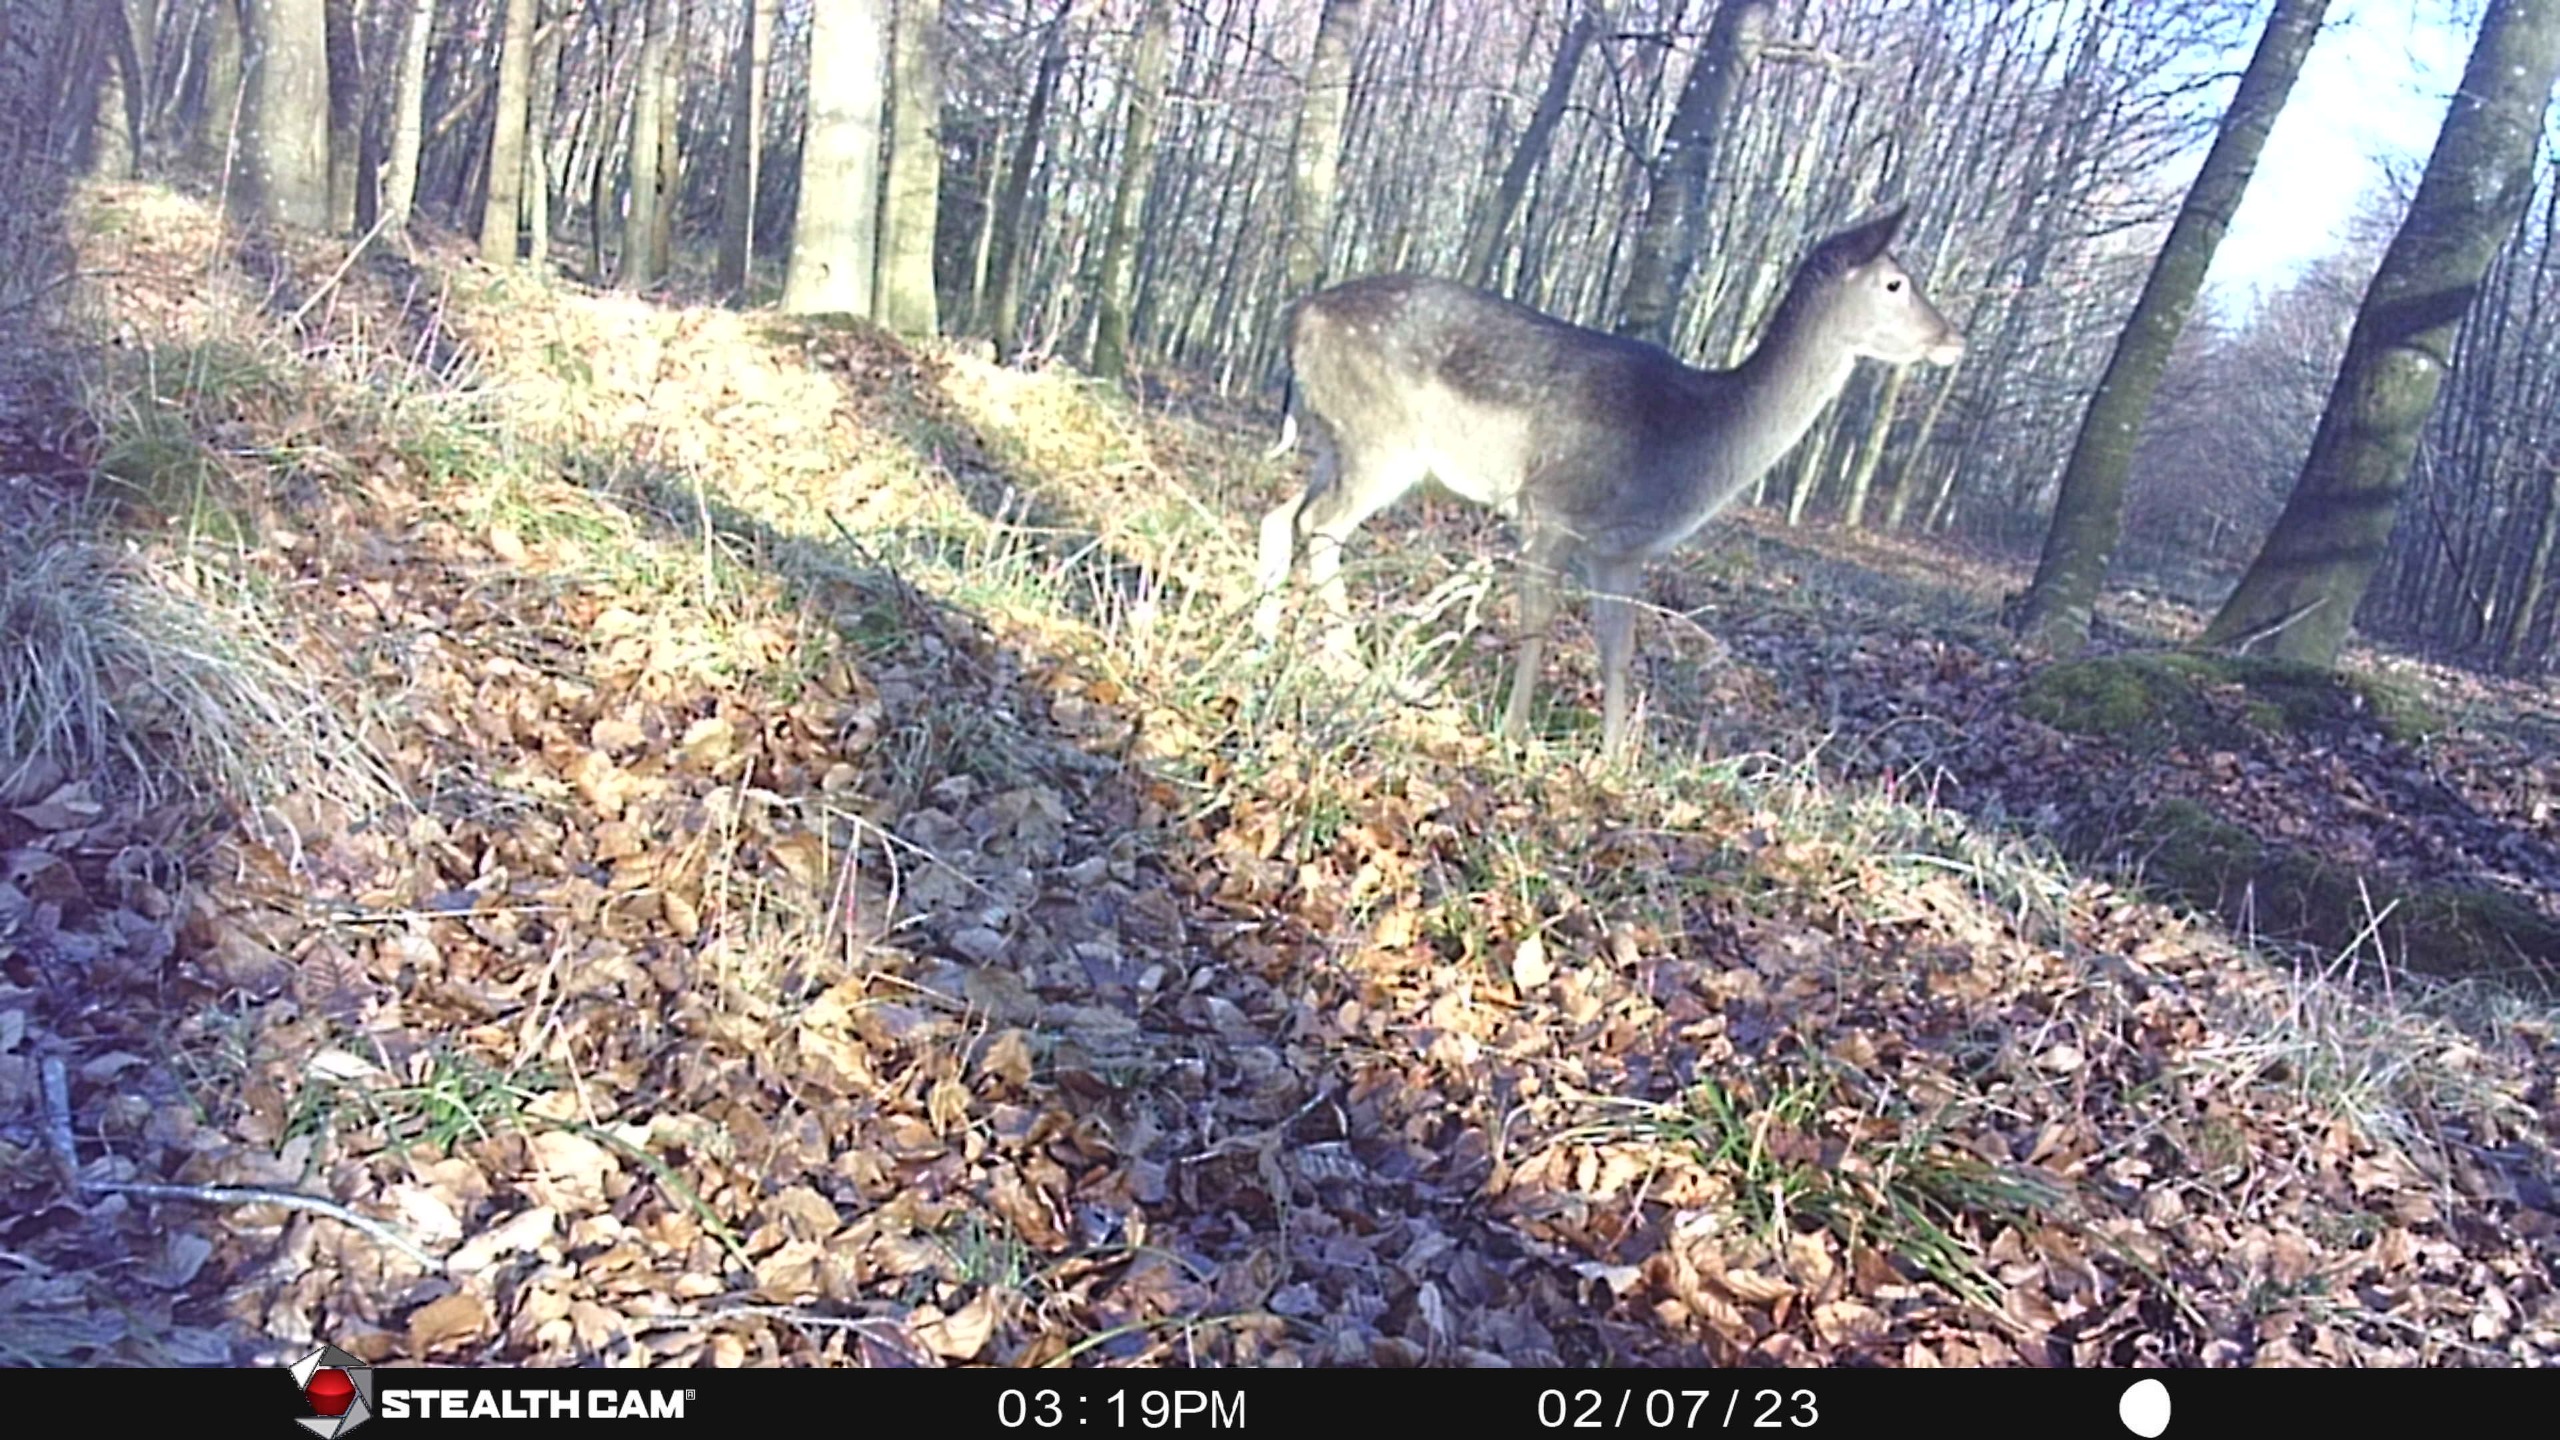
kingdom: Animalia
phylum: Chordata
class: Mammalia
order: Artiodactyla
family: Cervidae
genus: Dama
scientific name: Dama dama
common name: Dådyr
